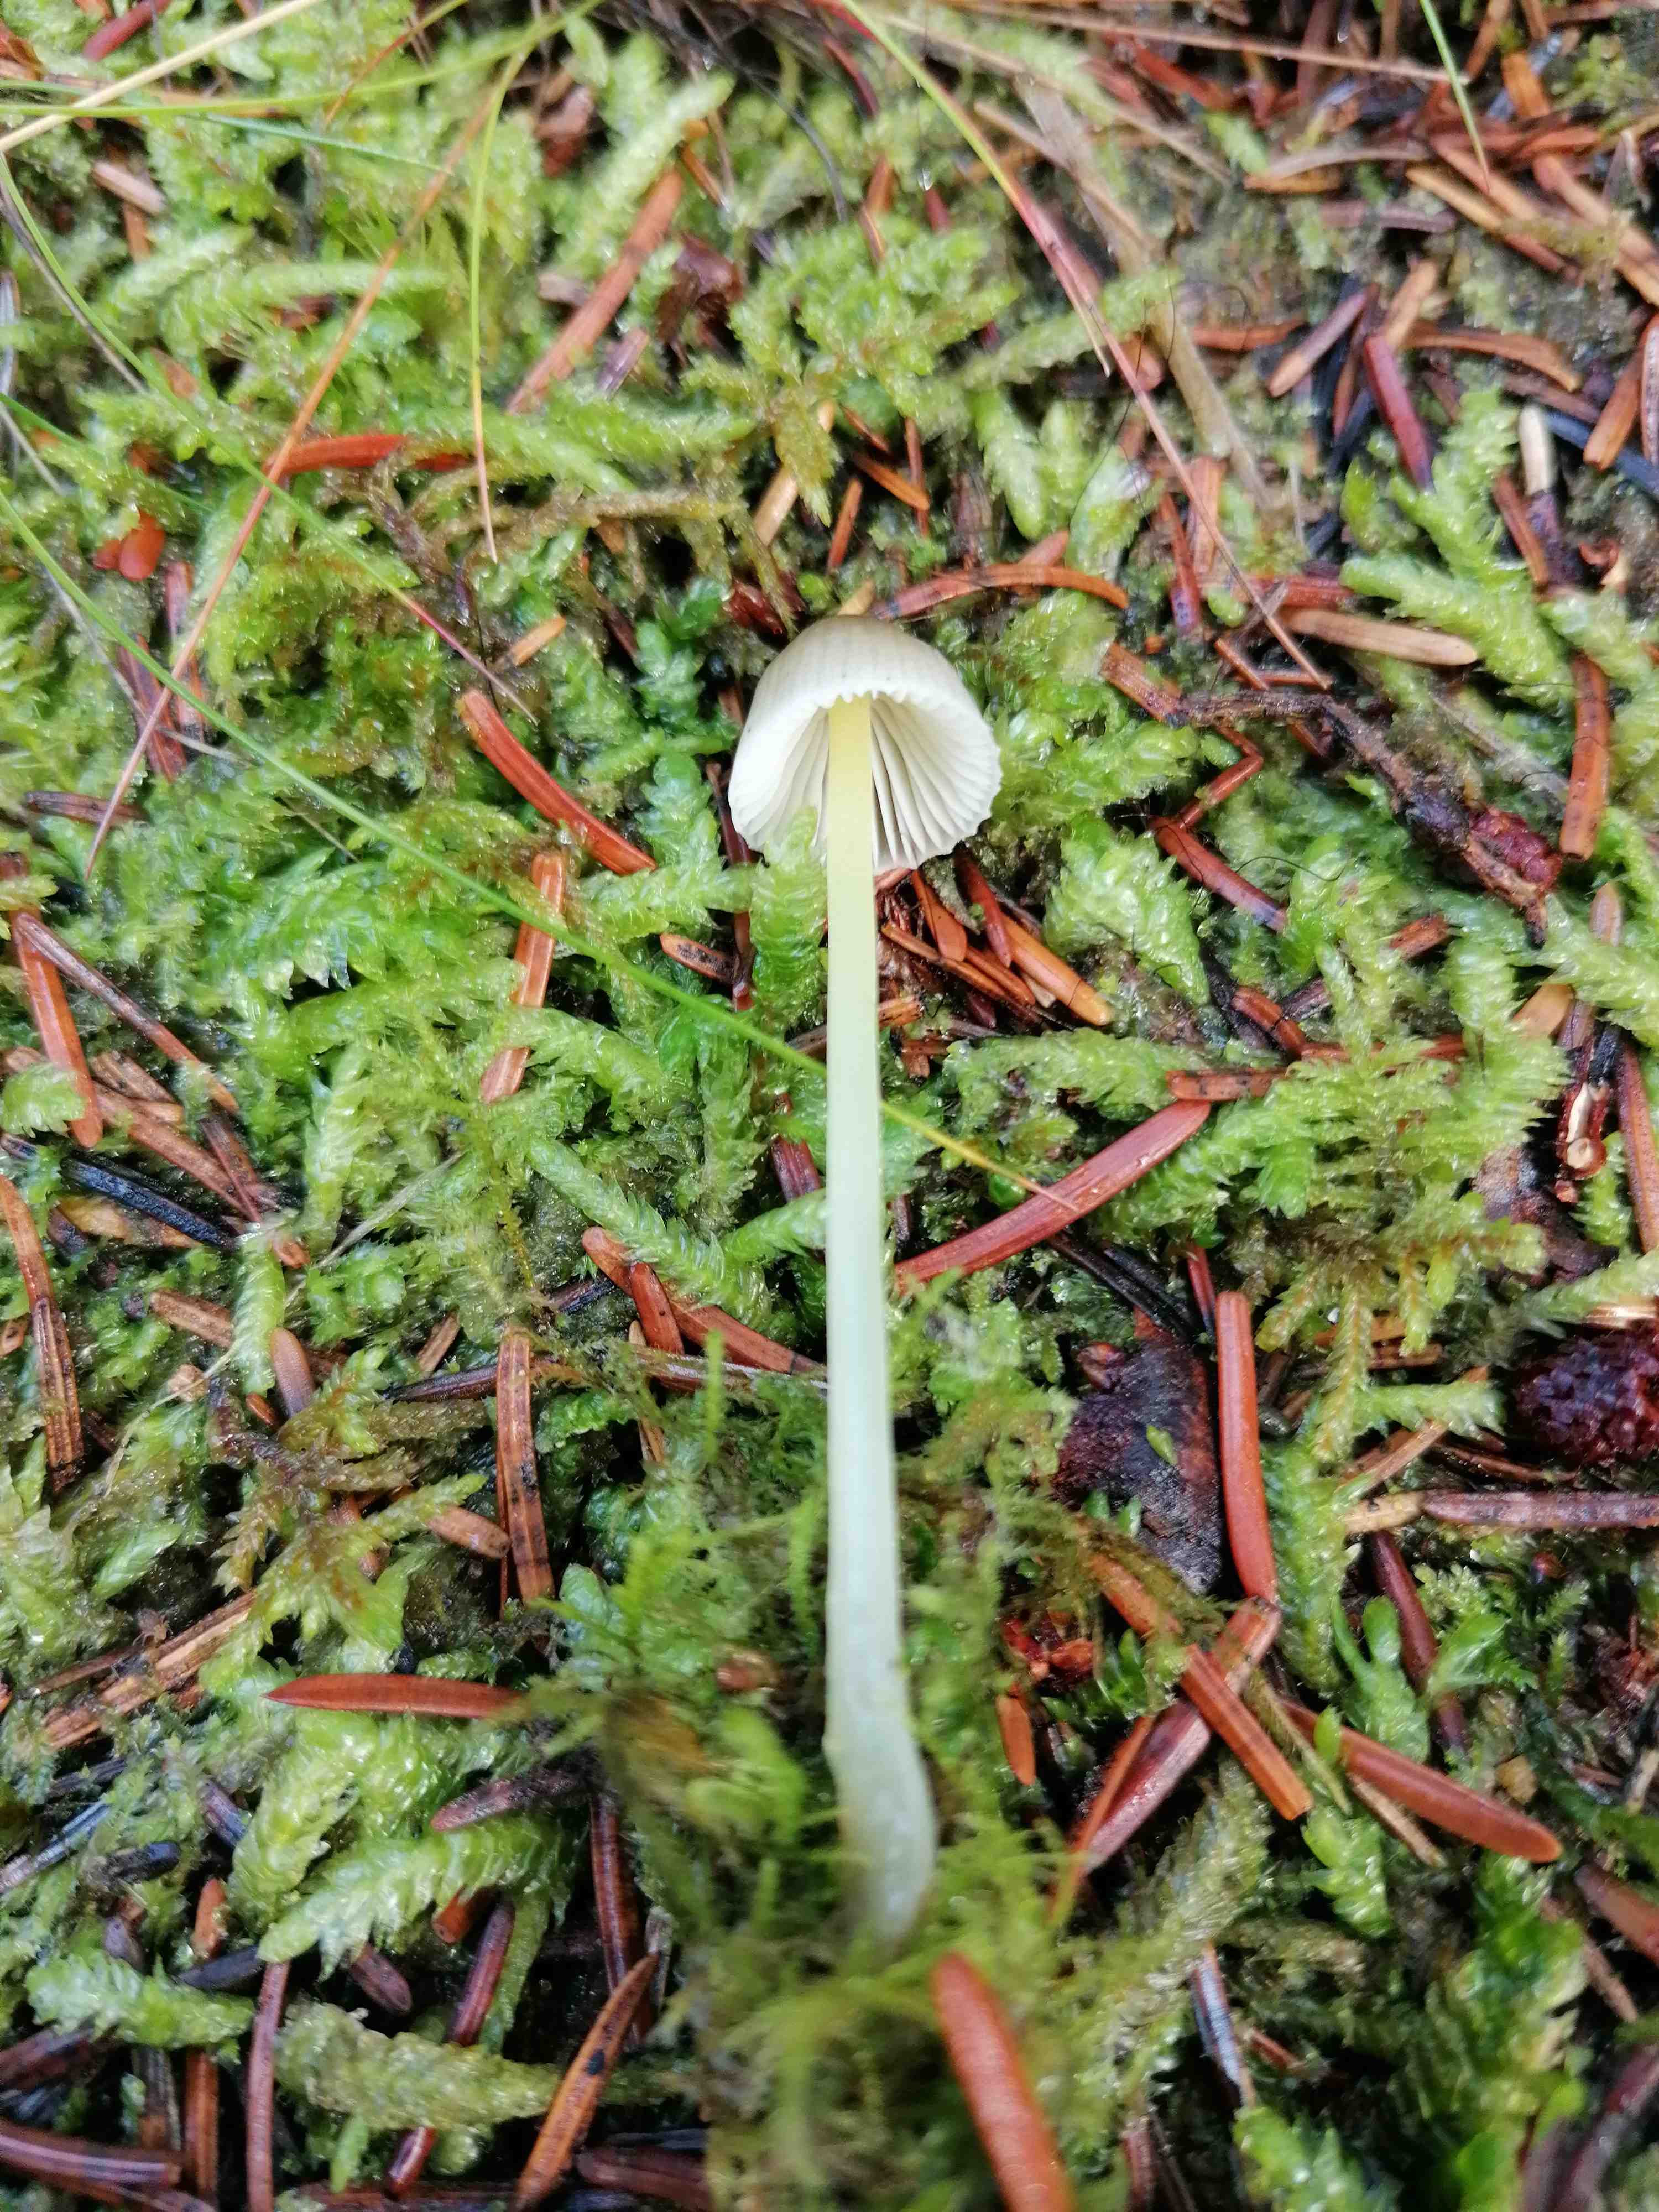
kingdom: Fungi
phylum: Basidiomycota
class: Agaricomycetes
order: Agaricales
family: Mycenaceae
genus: Mycena
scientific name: Mycena epipterygia
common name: gulstokket huesvamp
